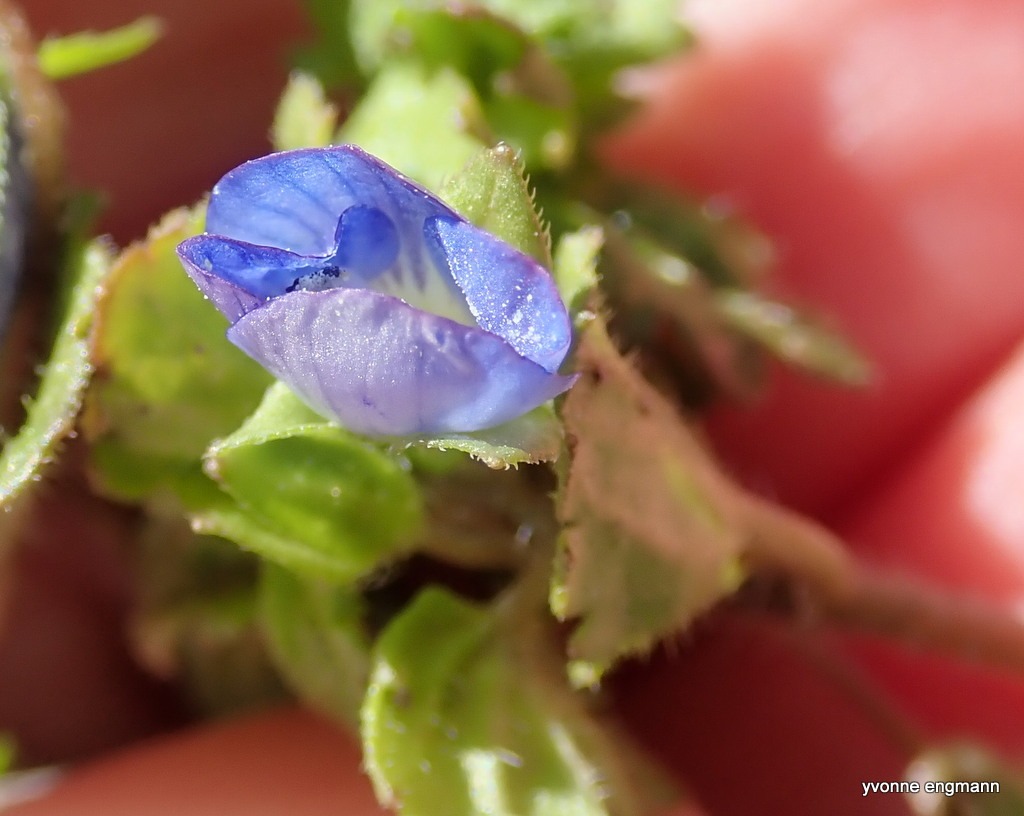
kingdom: Plantae
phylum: Tracheophyta
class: Magnoliopsida
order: Lamiales
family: Plantaginaceae
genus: Veronica
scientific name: Veronica persica
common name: Storkronet ærenpris
